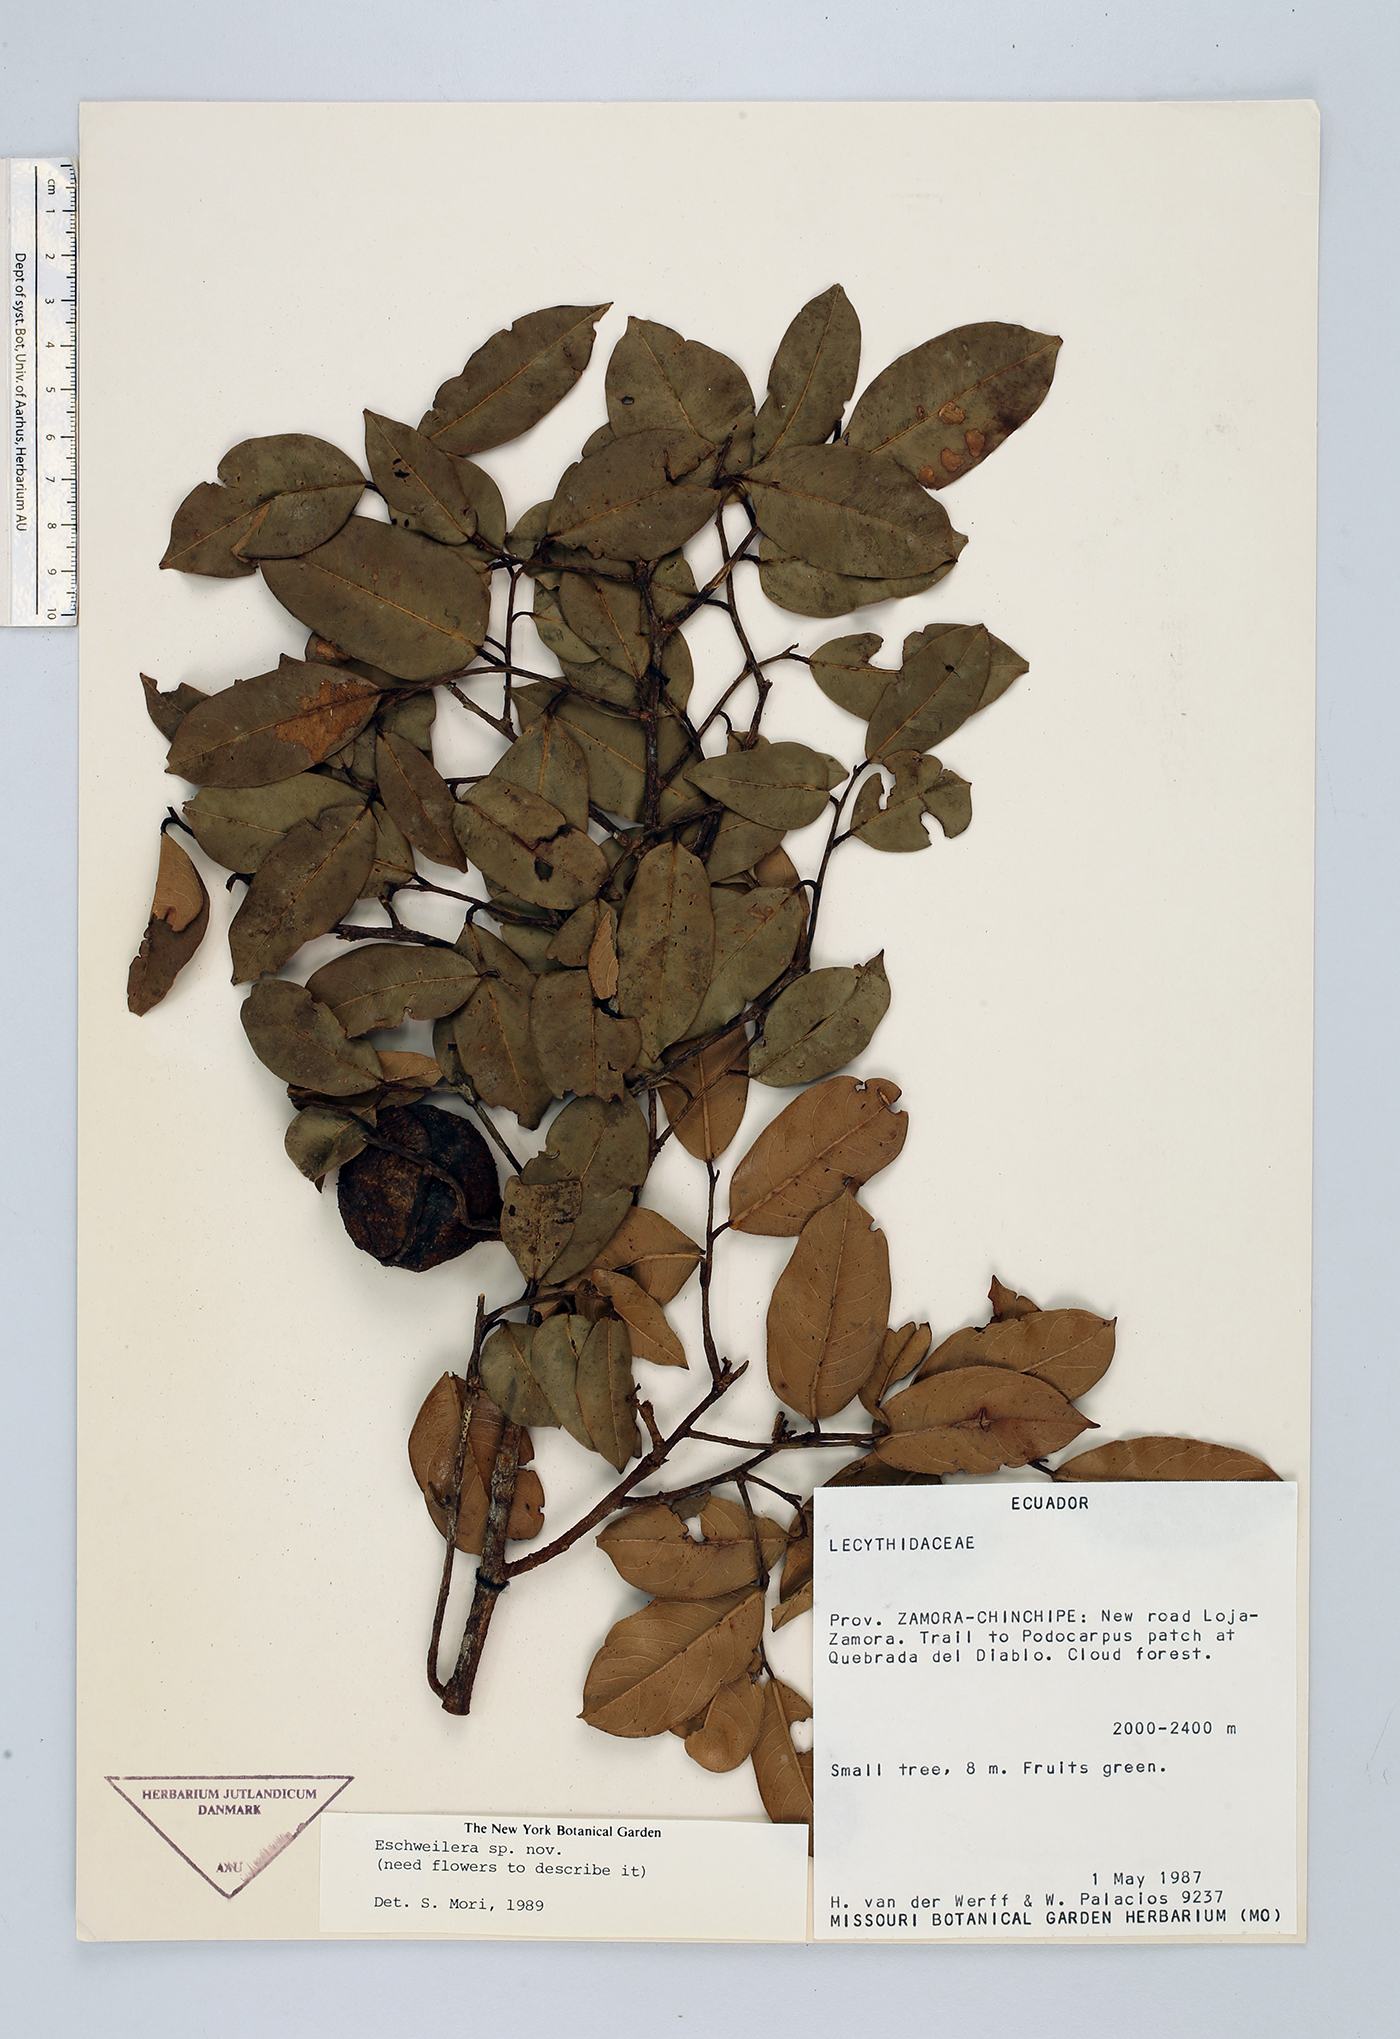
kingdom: Plantae
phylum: Tracheophyta
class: Magnoliopsida
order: Ericales
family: Lecythidaceae
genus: Eschweilera
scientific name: Eschweilera
